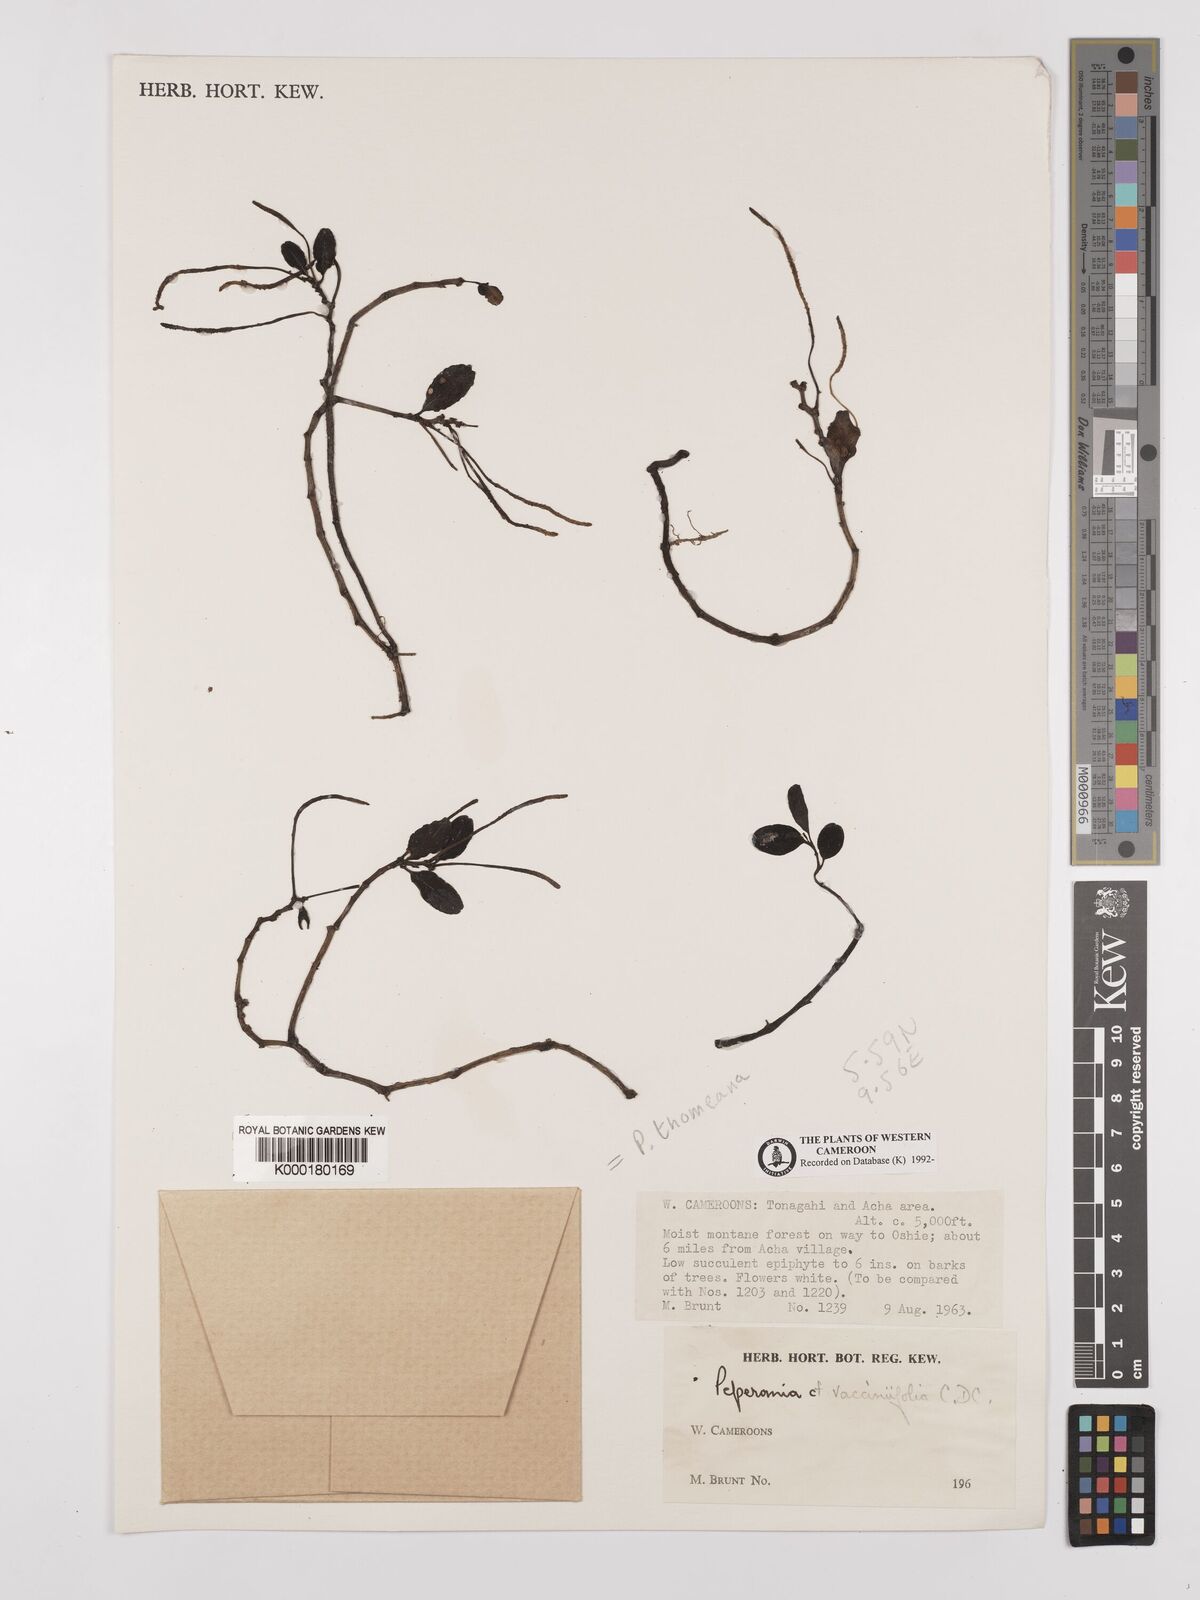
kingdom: Plantae
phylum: Tracheophyta
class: Magnoliopsida
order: Piperales
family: Piperaceae
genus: Peperomia
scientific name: Peperomia thomeana
